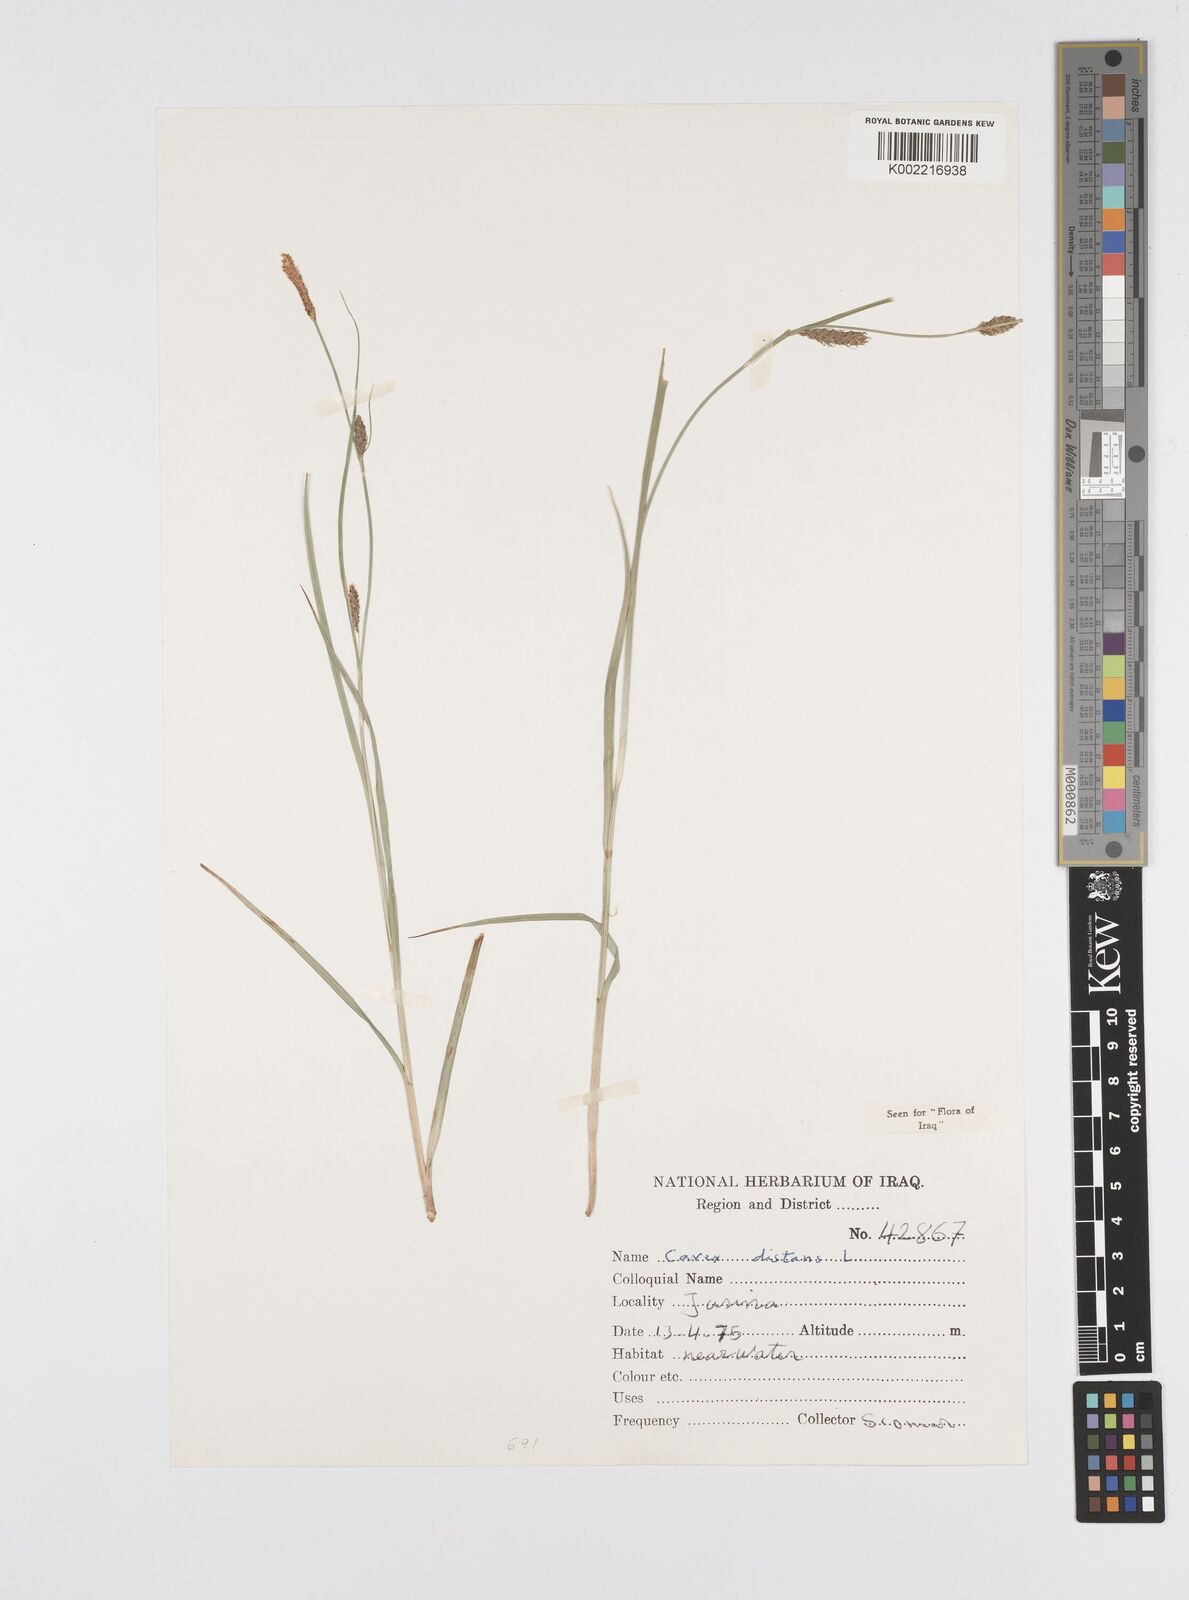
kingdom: Plantae
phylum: Tracheophyta
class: Liliopsida
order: Poales
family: Cyperaceae
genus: Carex
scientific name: Carex distans
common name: Distant sedge
